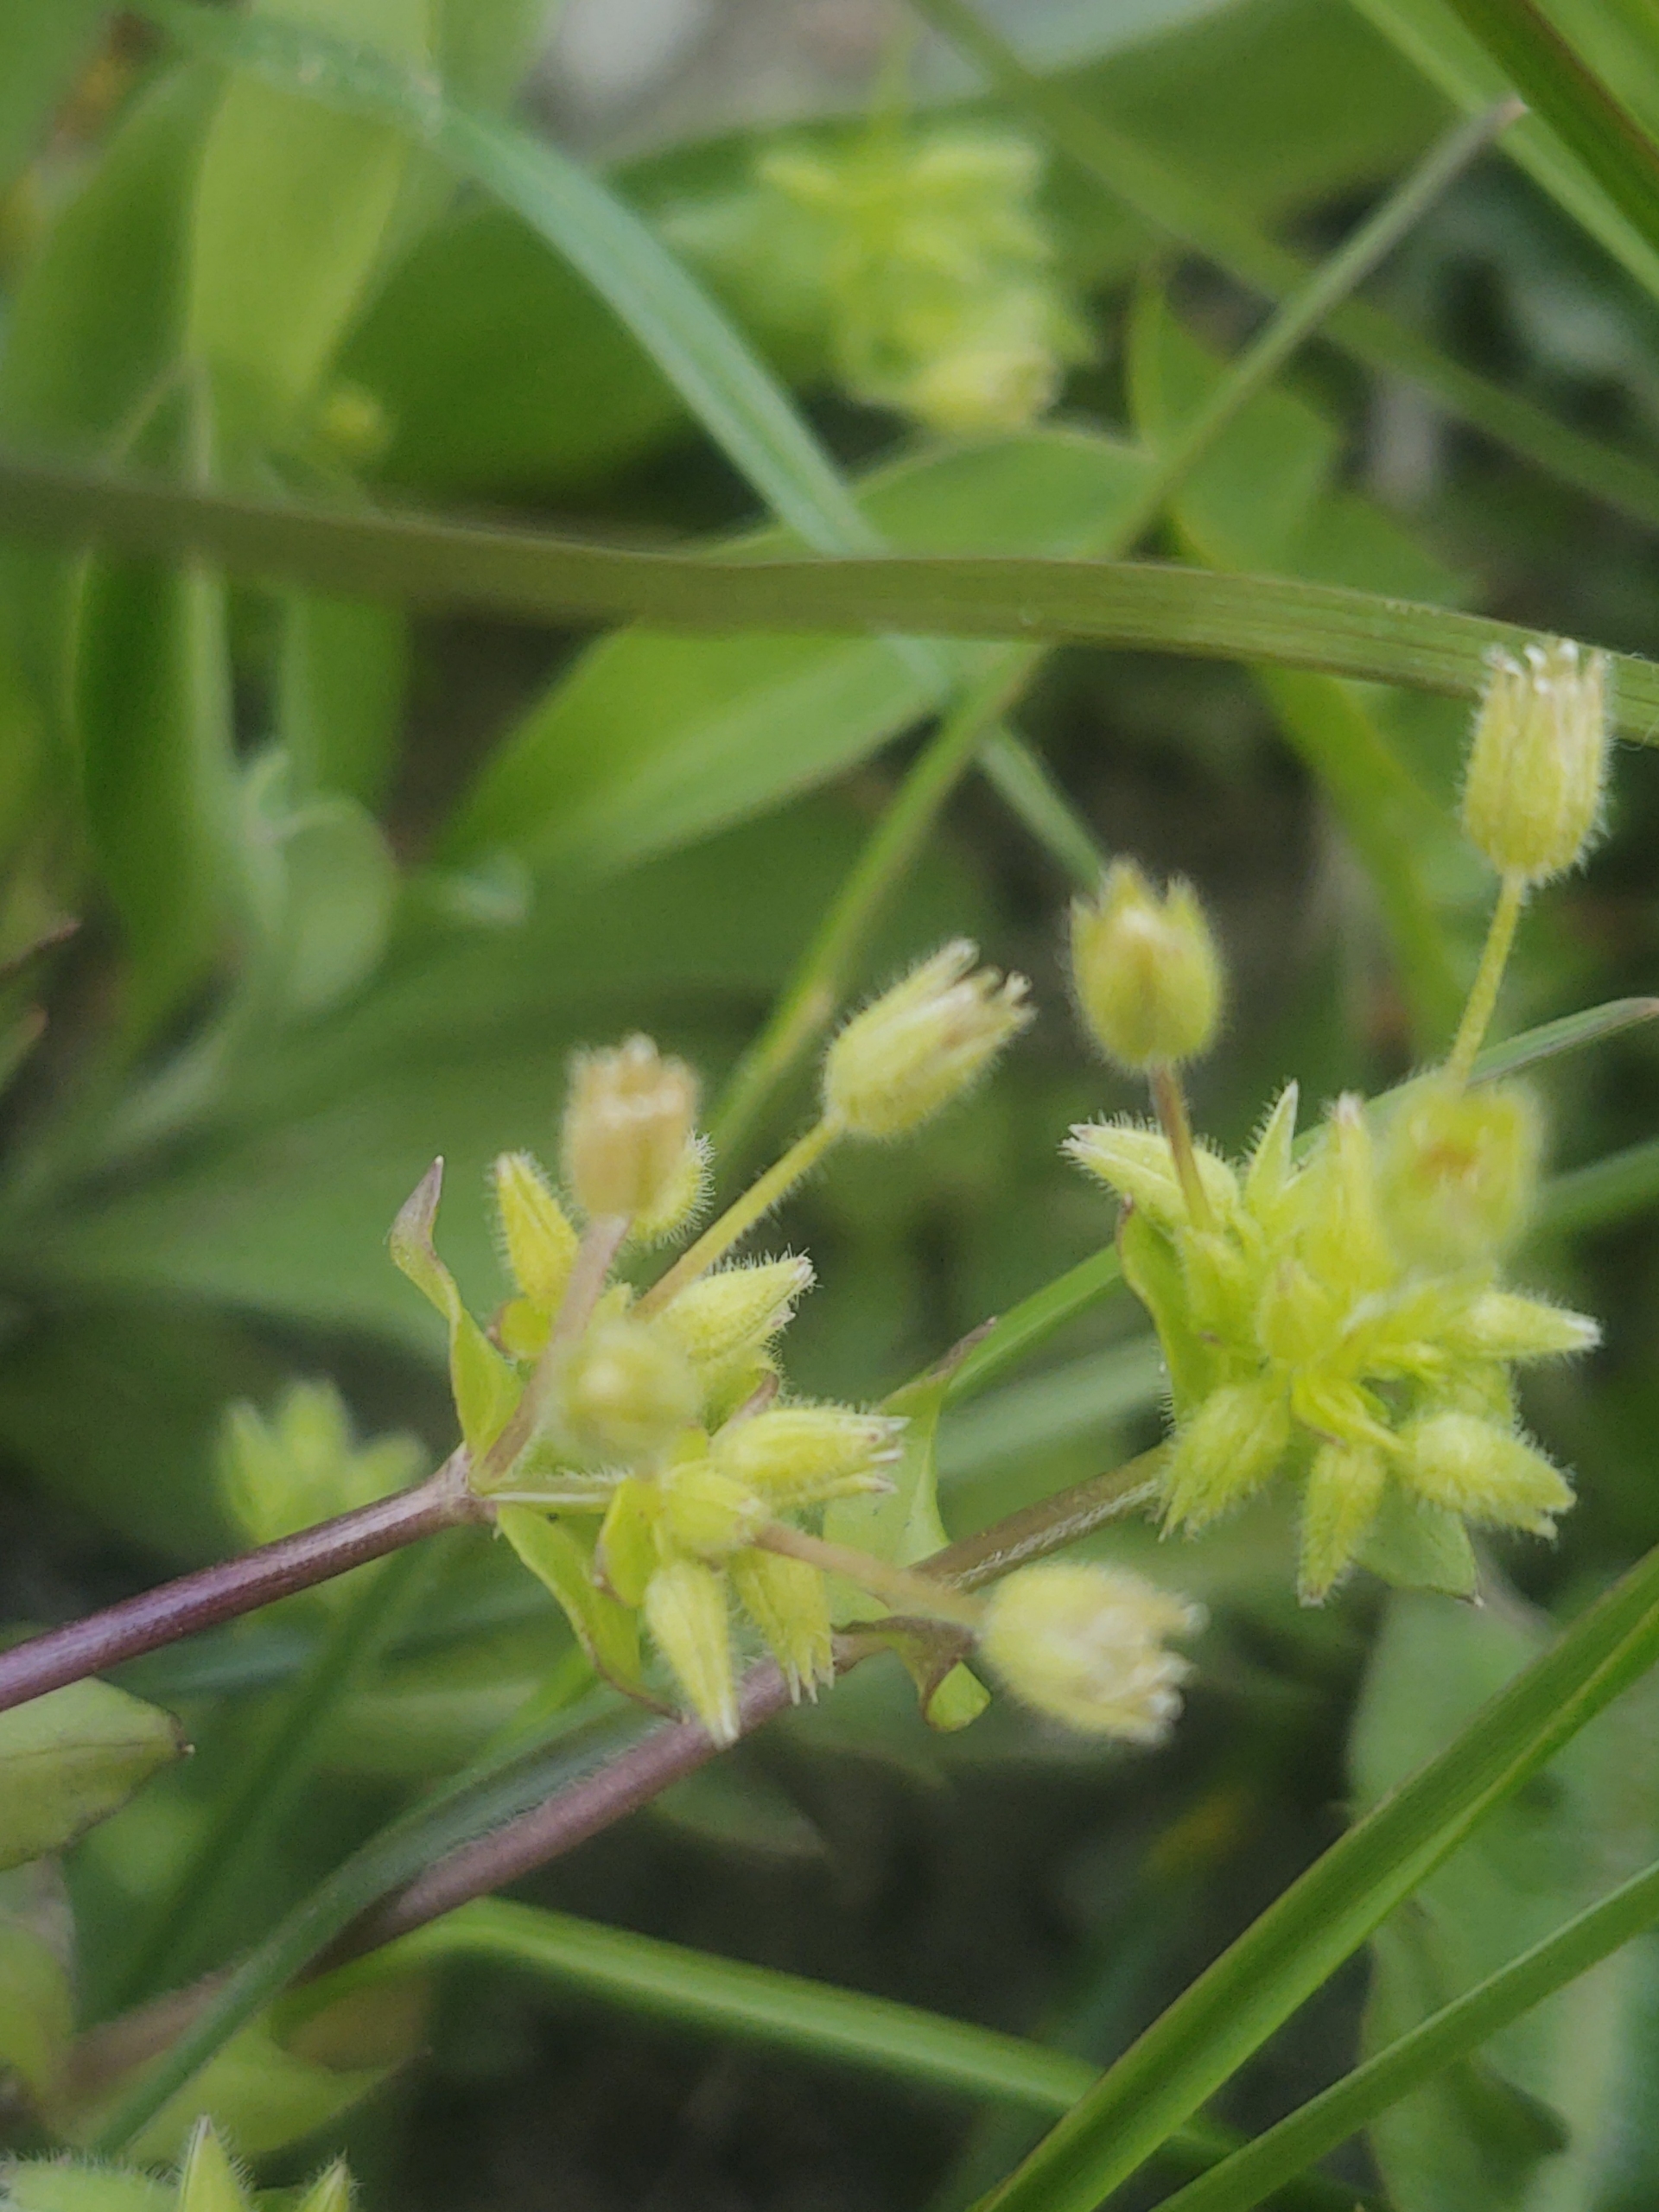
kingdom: Plantae
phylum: Tracheophyta
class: Magnoliopsida
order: Caryophyllales
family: Caryophyllaceae
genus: Stellaria
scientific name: Stellaria apetala
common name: Bleg fuglegræs
